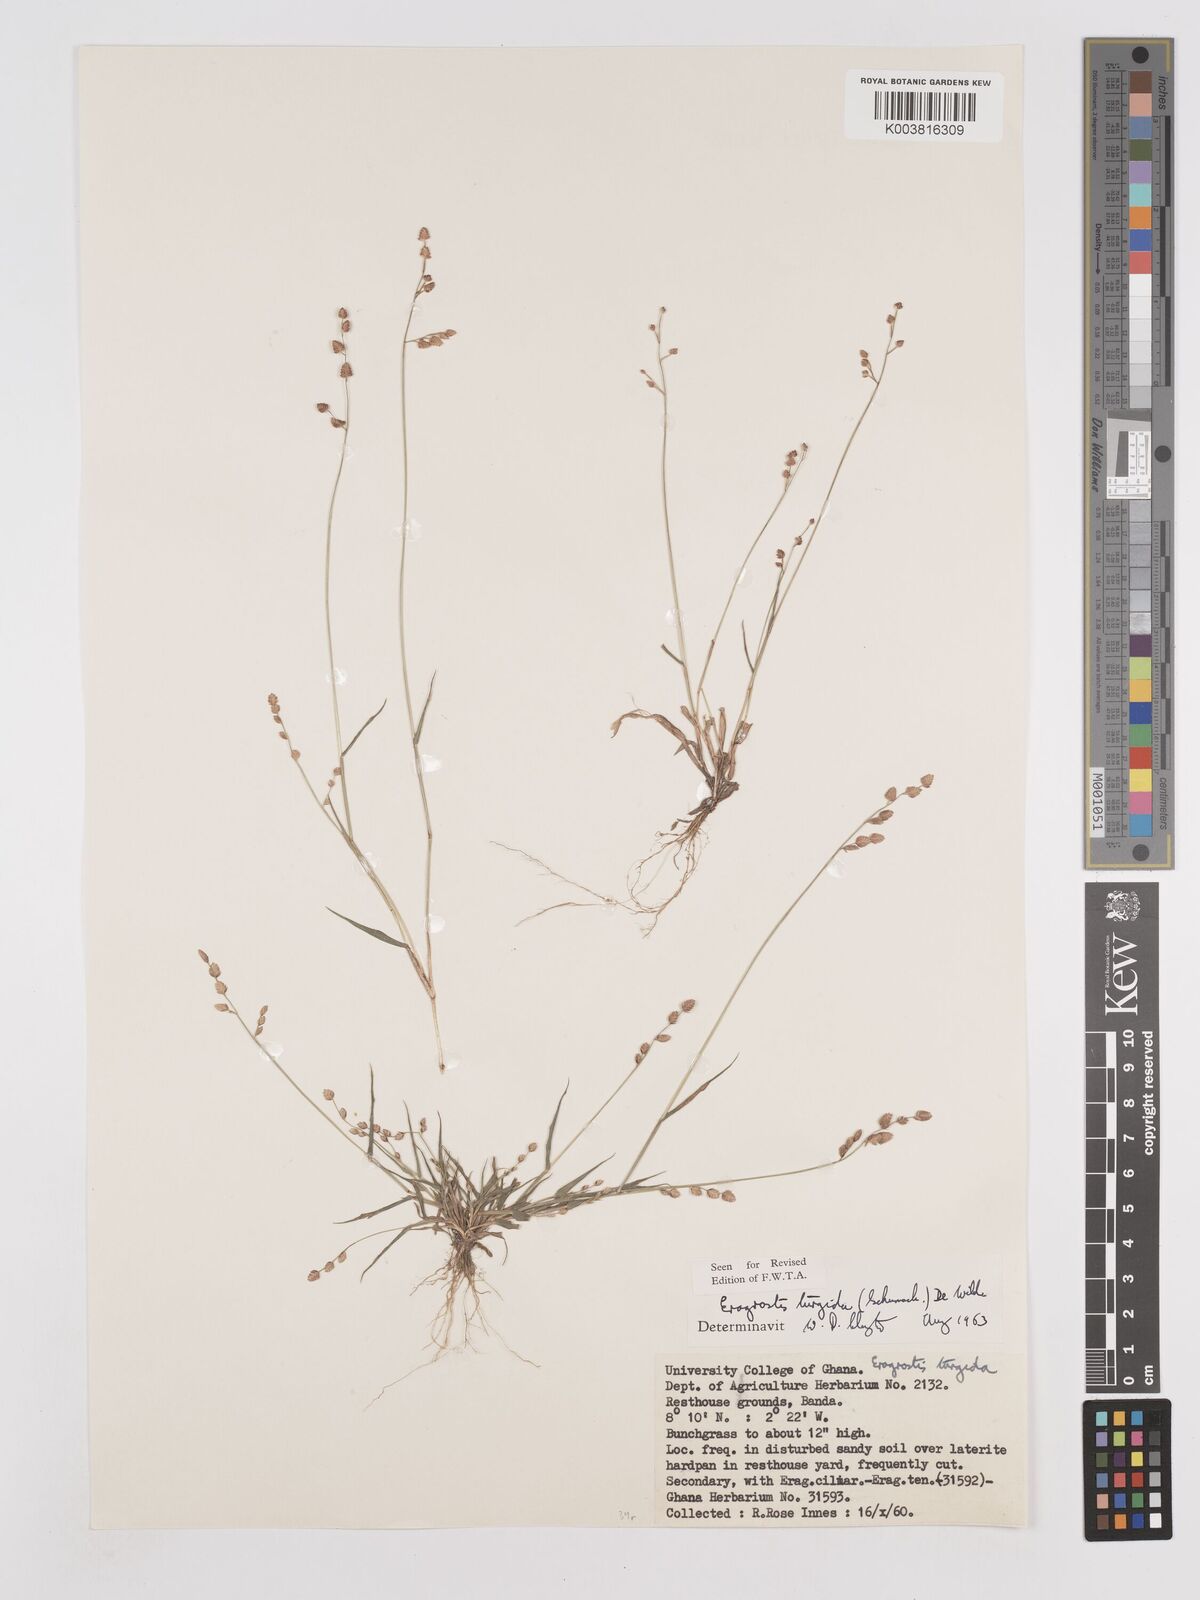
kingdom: Plantae
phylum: Tracheophyta
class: Liliopsida
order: Poales
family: Poaceae
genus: Eragrostis
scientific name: Eragrostis turgida
